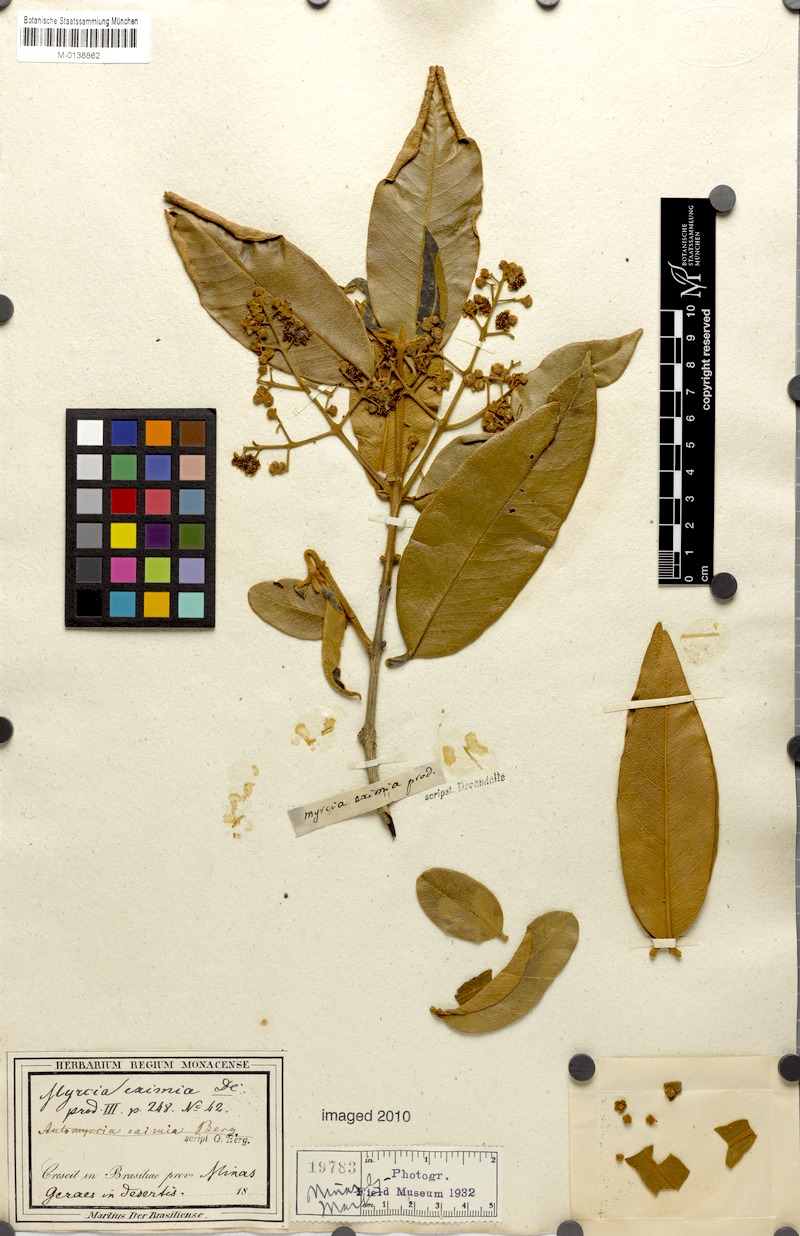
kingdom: Plantae
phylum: Tracheophyta
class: Magnoliopsida
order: Myrtales
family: Myrtaceae
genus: Myrcia
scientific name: Myrcia eximia
